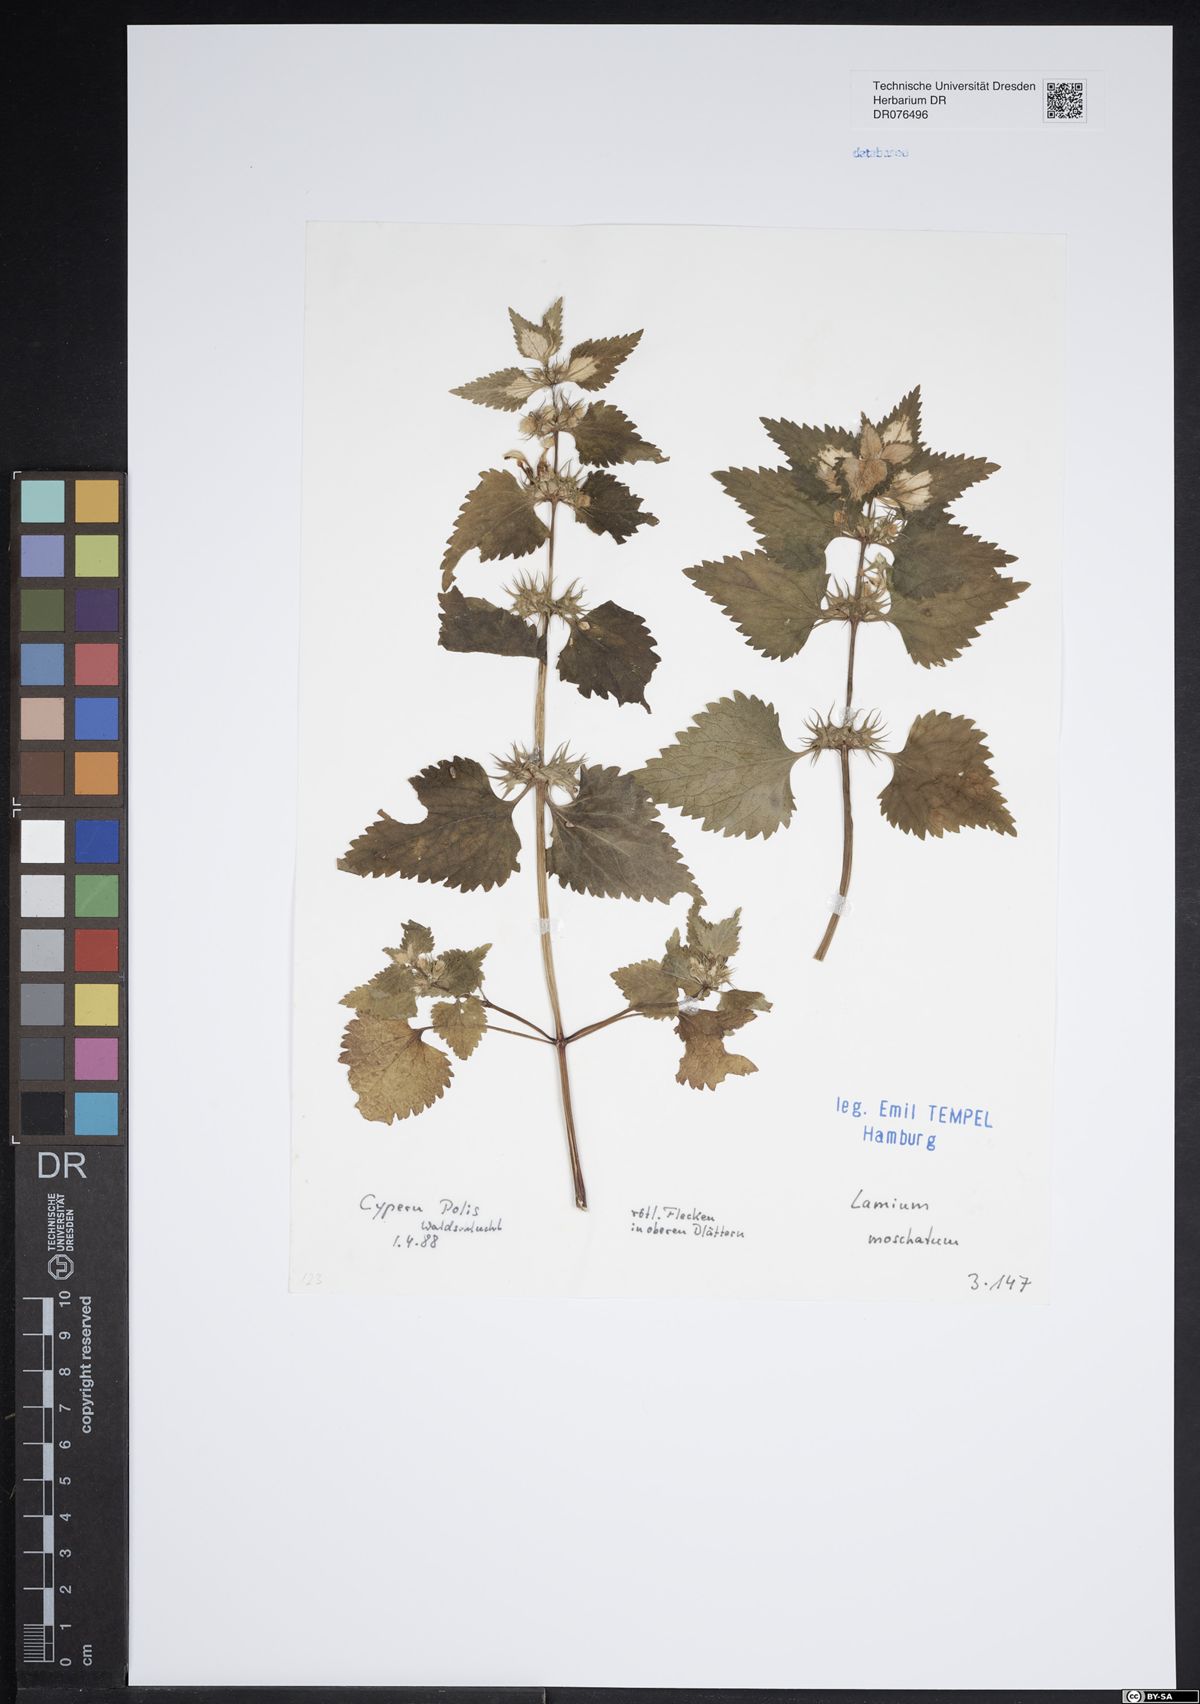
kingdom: Plantae
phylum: Tracheophyta
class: Magnoliopsida
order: Lamiales
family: Lamiaceae
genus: Lamium
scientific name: Lamium moschatum
